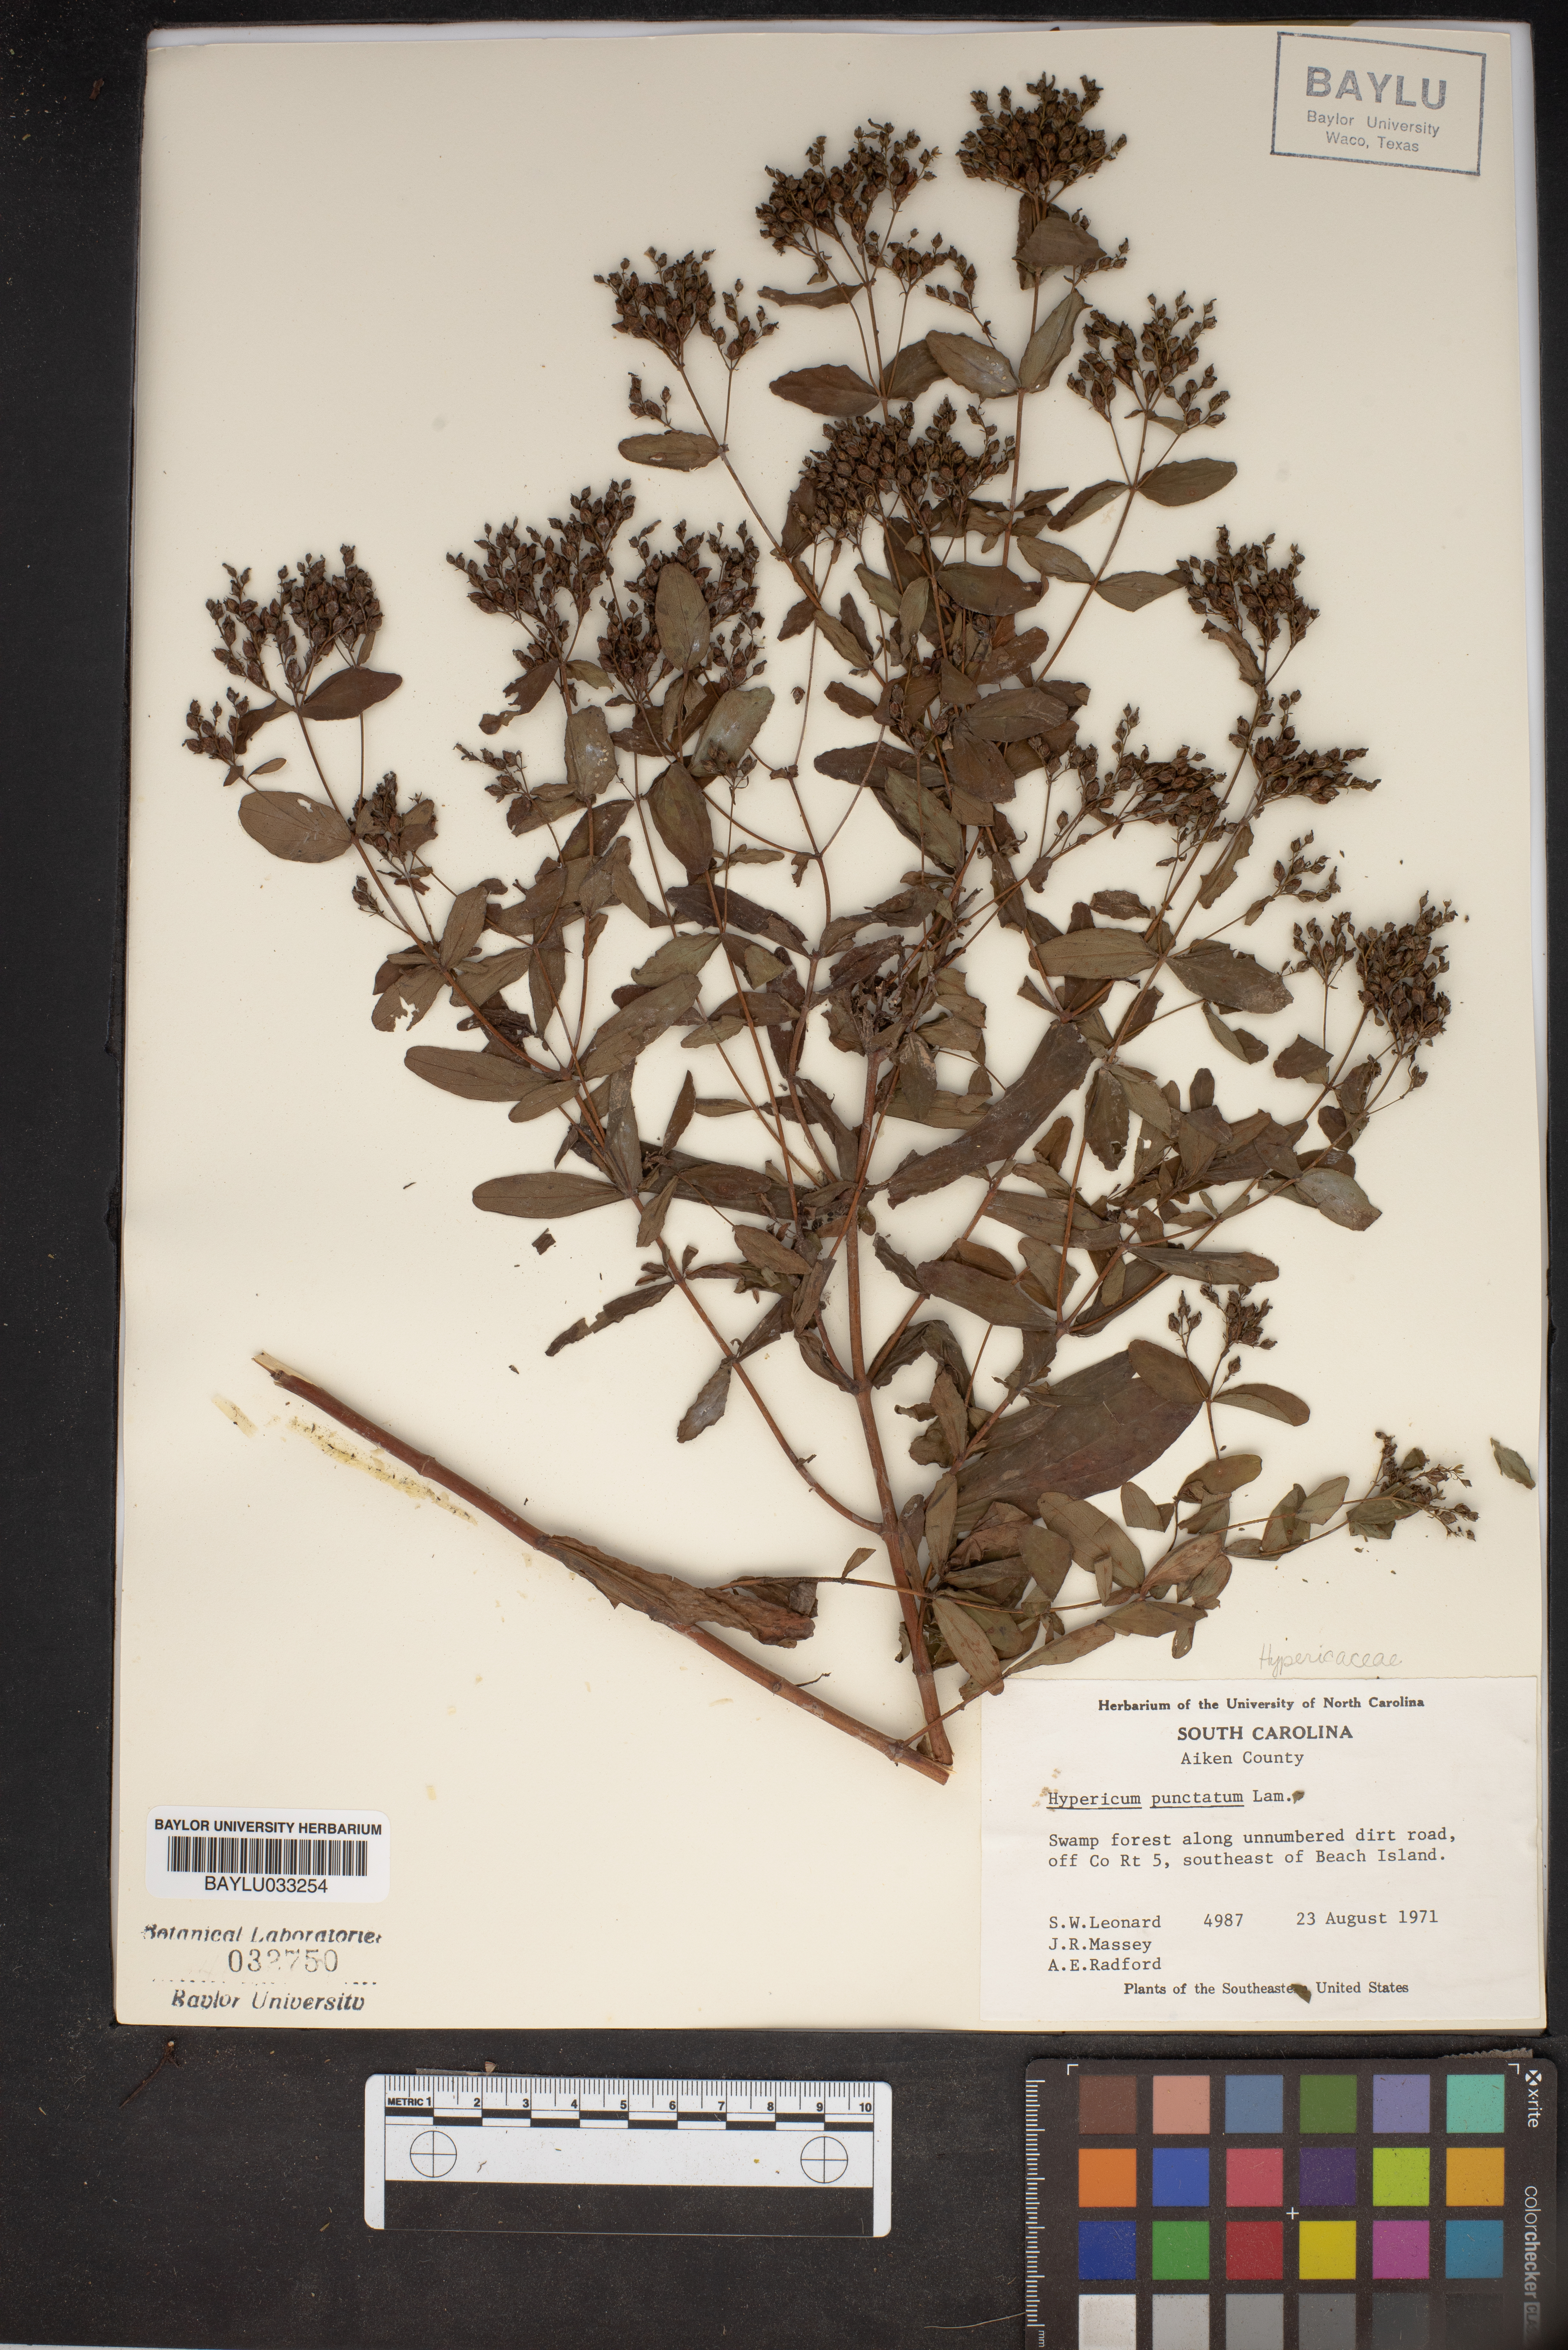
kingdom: Plantae
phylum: Tracheophyta
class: Magnoliopsida
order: Malpighiales
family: Hypericaceae
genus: Hypericum
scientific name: Hypericum punctatum
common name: Spotted st. john's-wort
